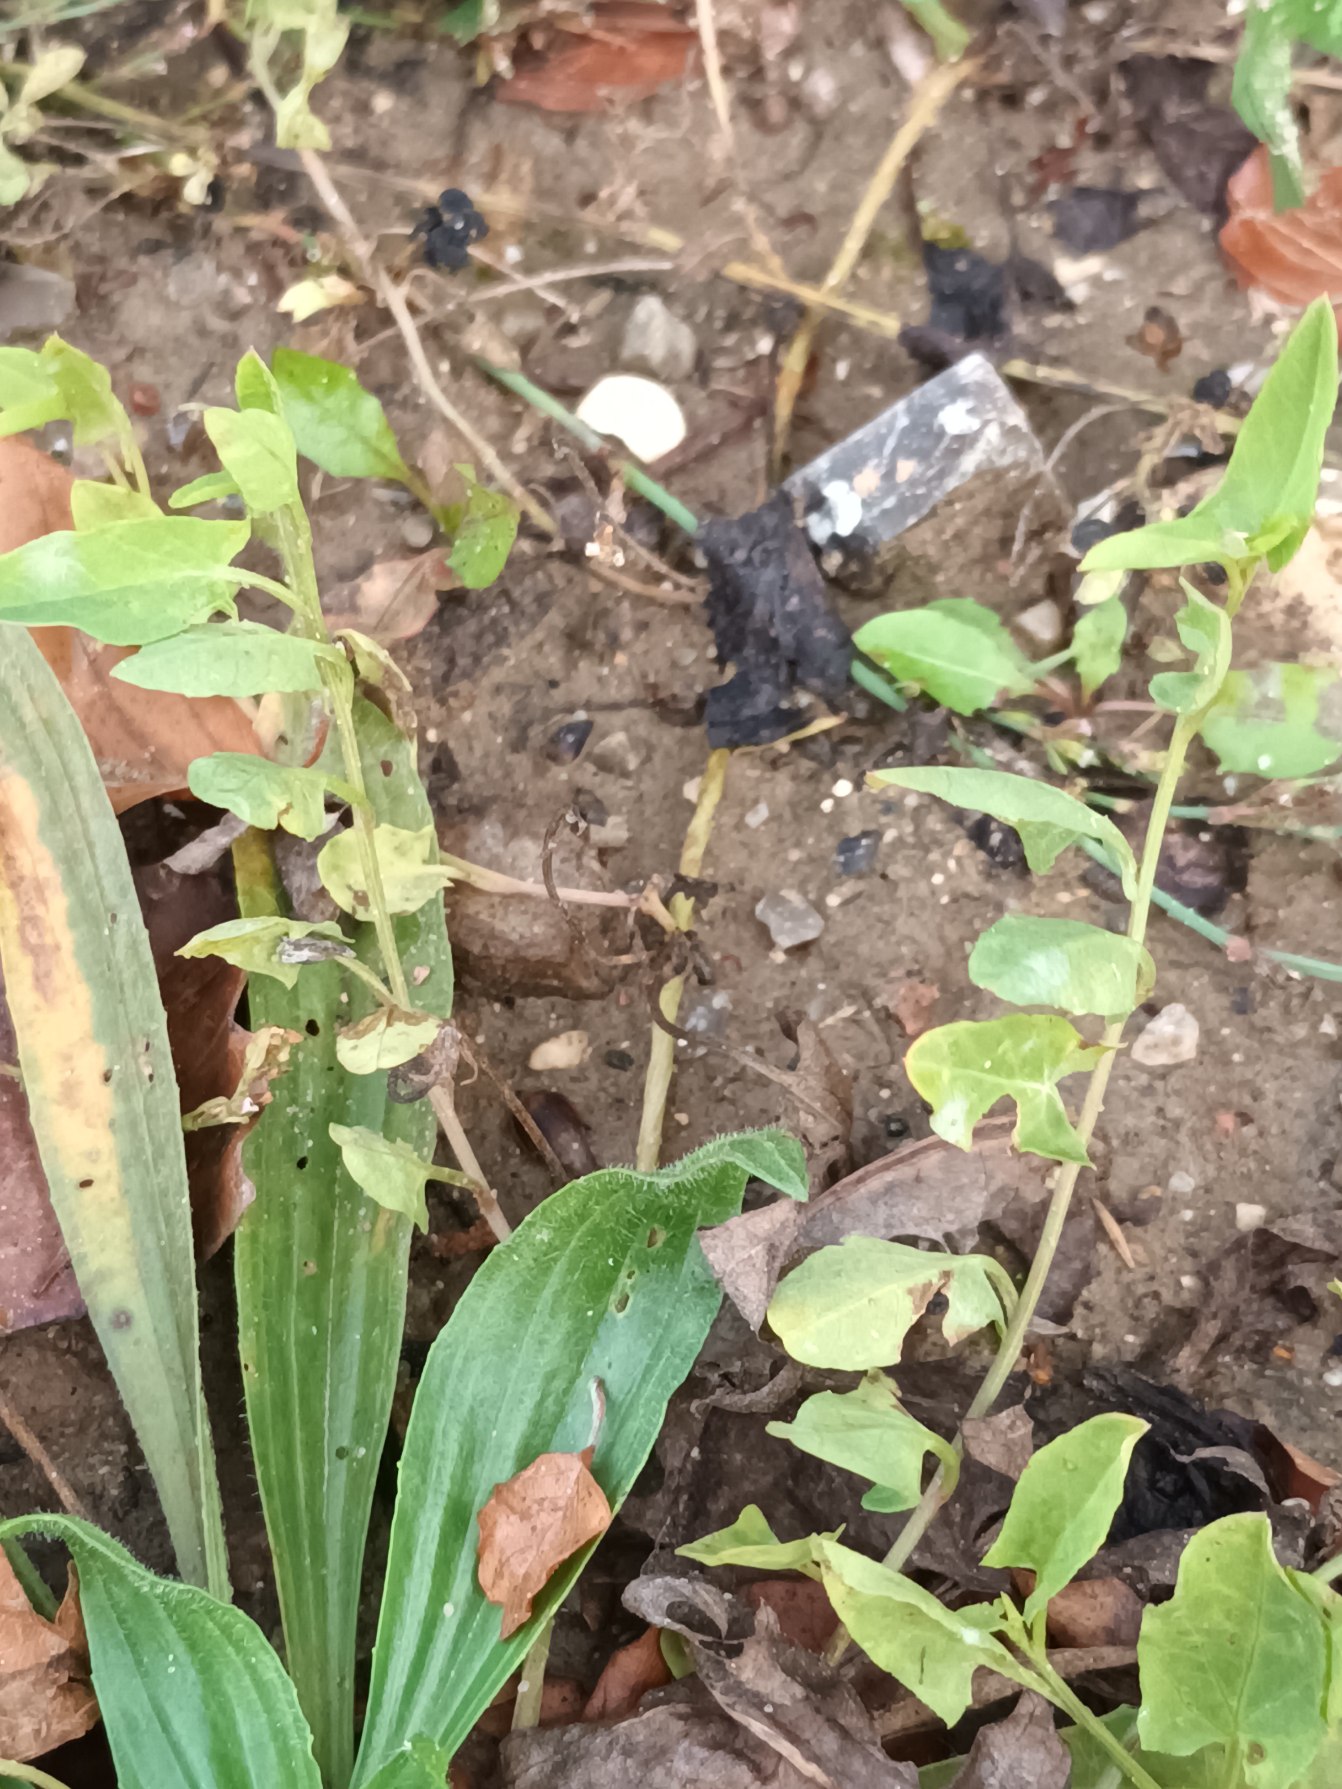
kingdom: Plantae
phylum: Tracheophyta
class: Magnoliopsida
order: Solanales
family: Convolvulaceae
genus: Convolvulus
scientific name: Convolvulus arvensis
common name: Ager-snerle
